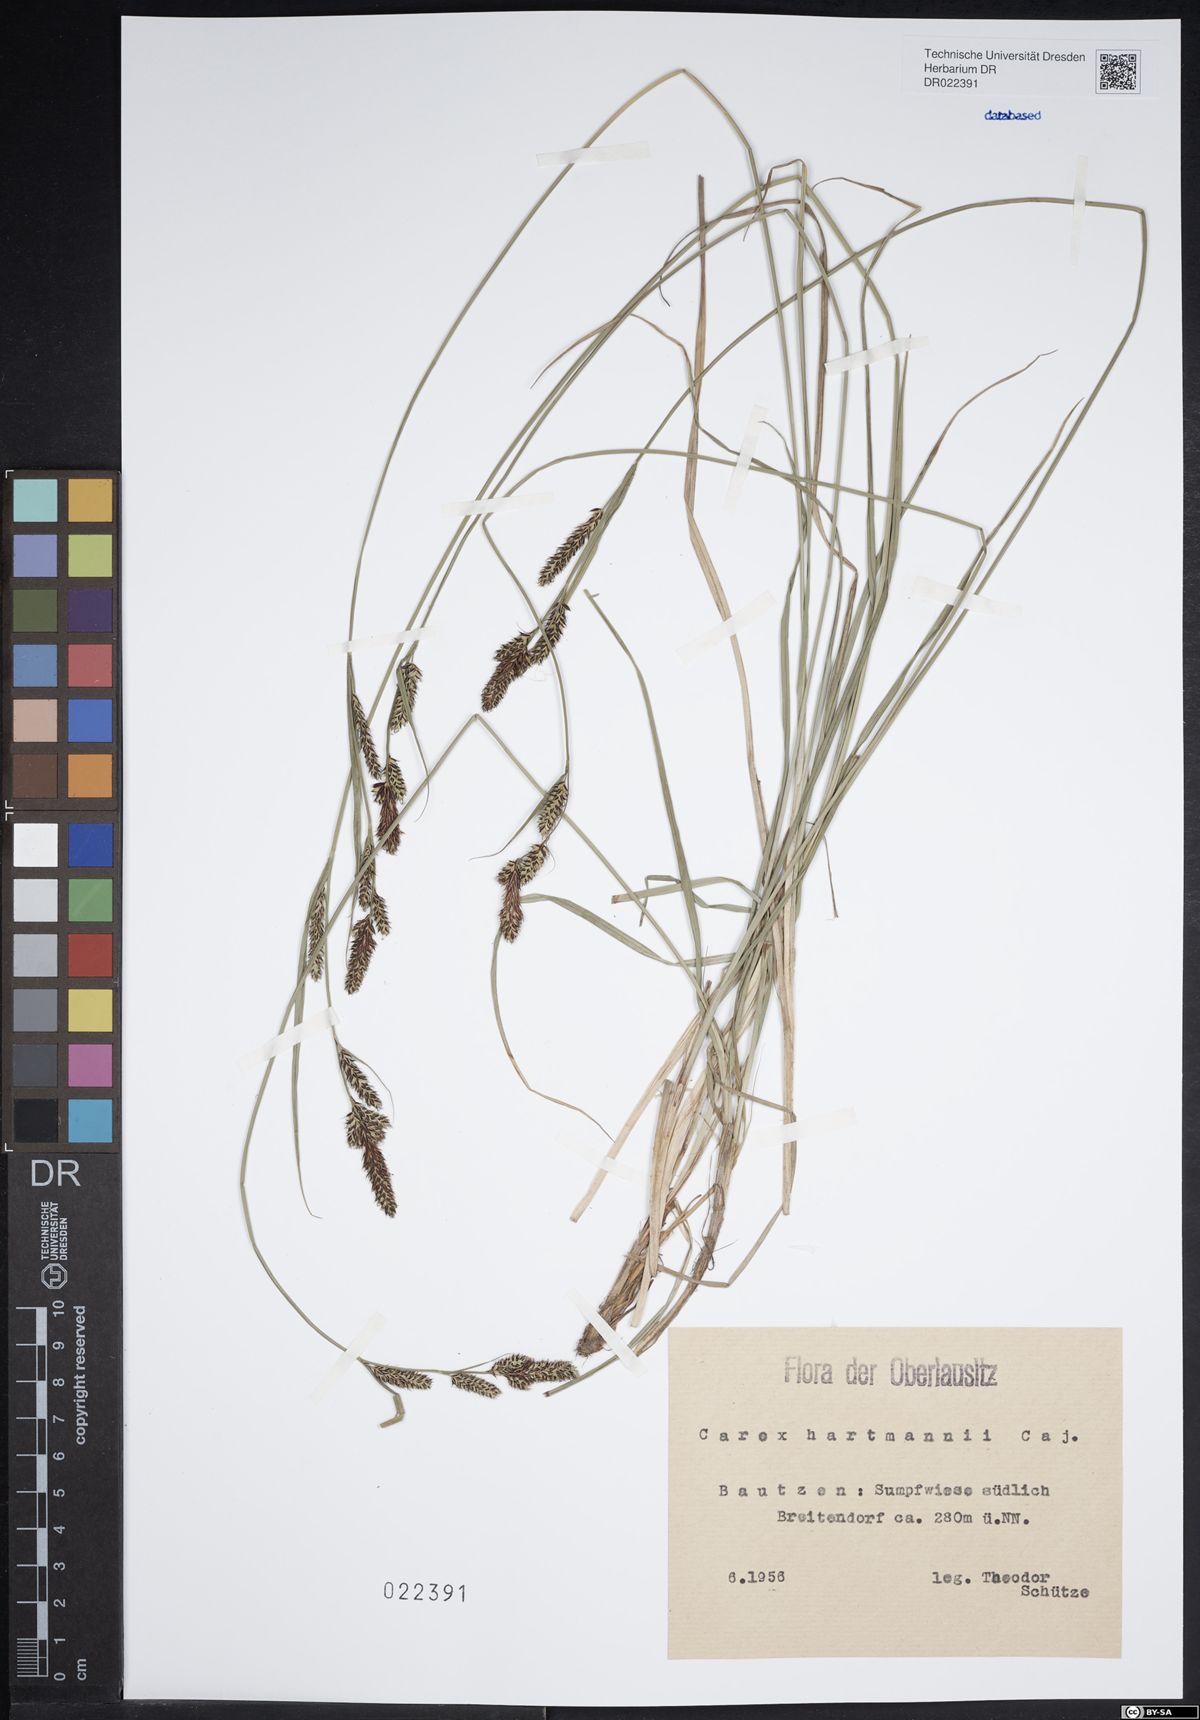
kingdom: Plantae
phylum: Tracheophyta
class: Liliopsida
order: Poales
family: Cyperaceae
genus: Carex
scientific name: Carex hartmaniorum
